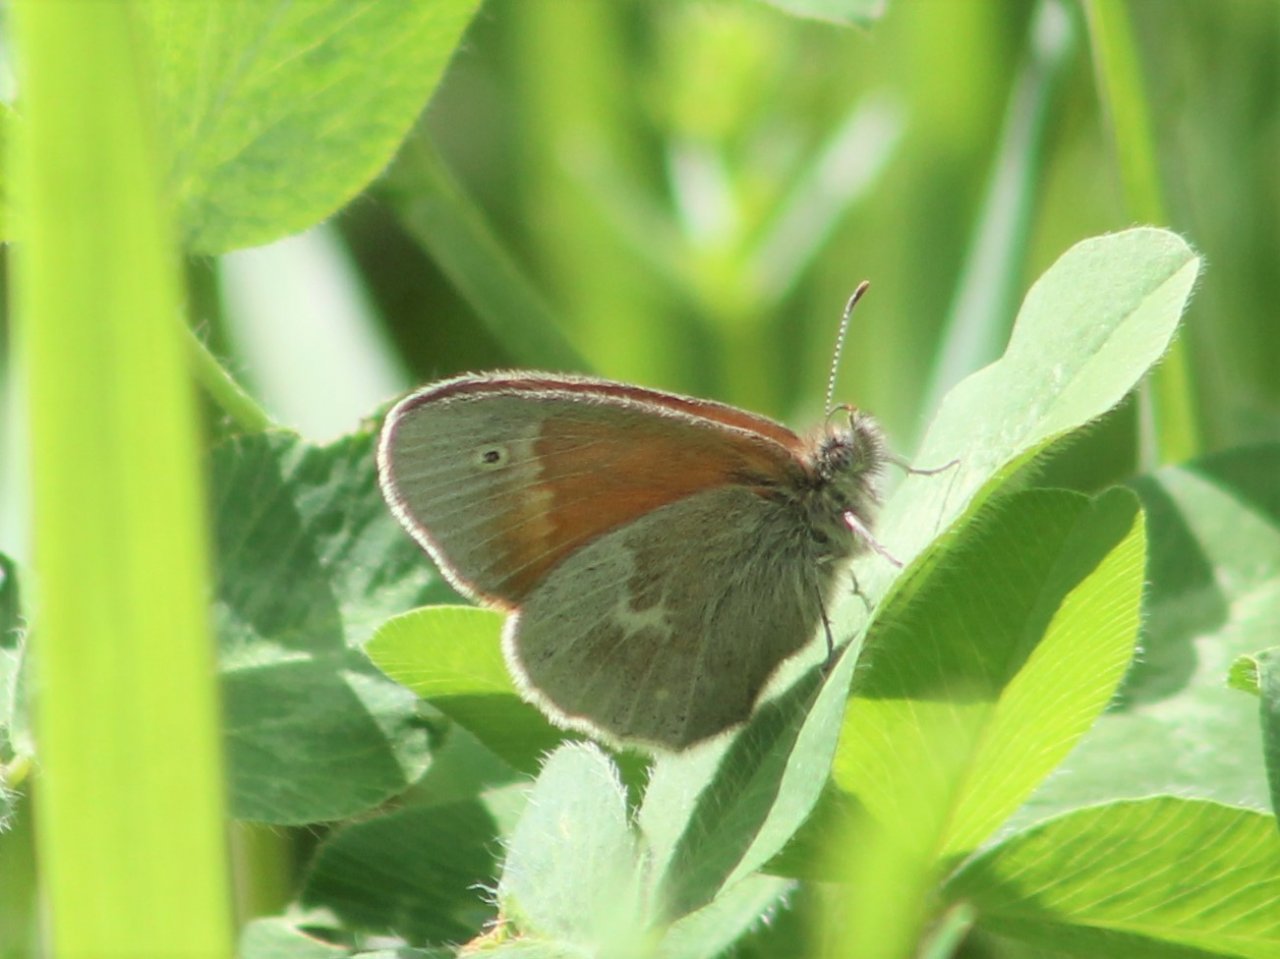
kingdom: Animalia
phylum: Arthropoda
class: Insecta
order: Lepidoptera
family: Nymphalidae
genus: Coenonympha
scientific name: Coenonympha tullia
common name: Large Heath
